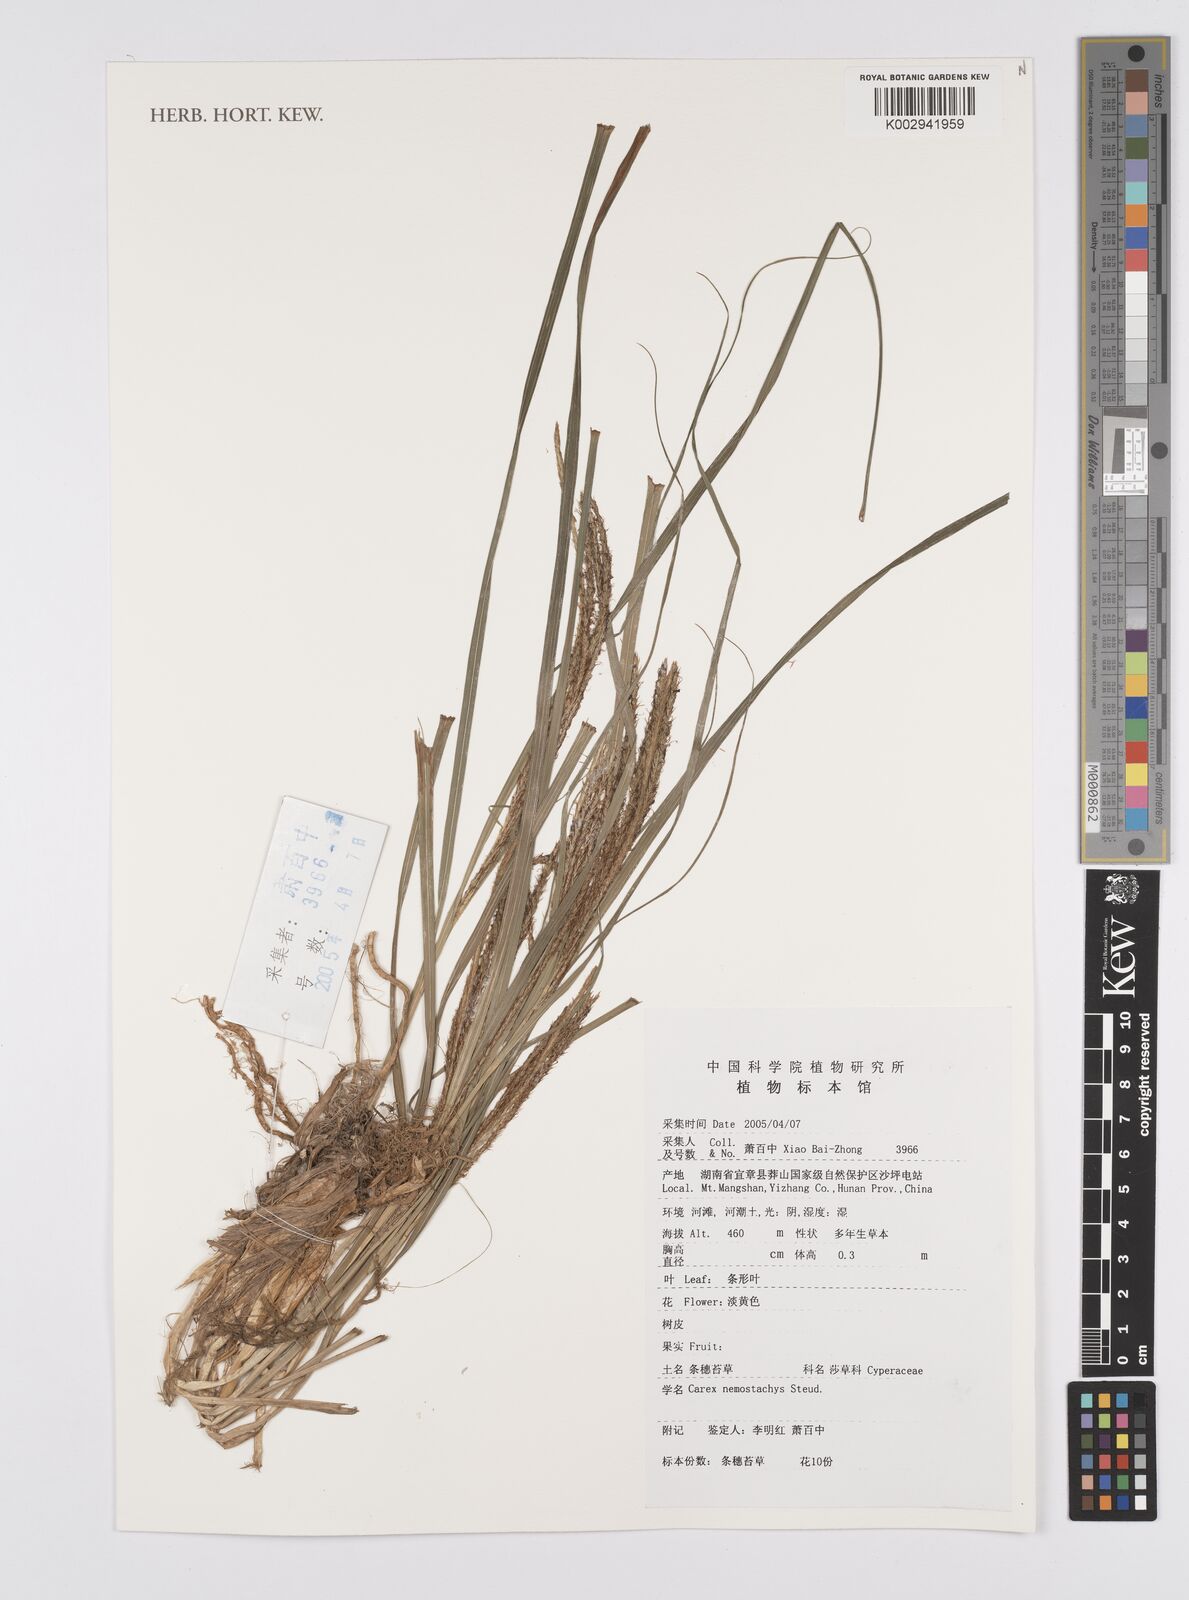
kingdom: Plantae
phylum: Tracheophyta
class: Liliopsida
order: Poales
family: Cyperaceae
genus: Carex
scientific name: Carex nemostachys
